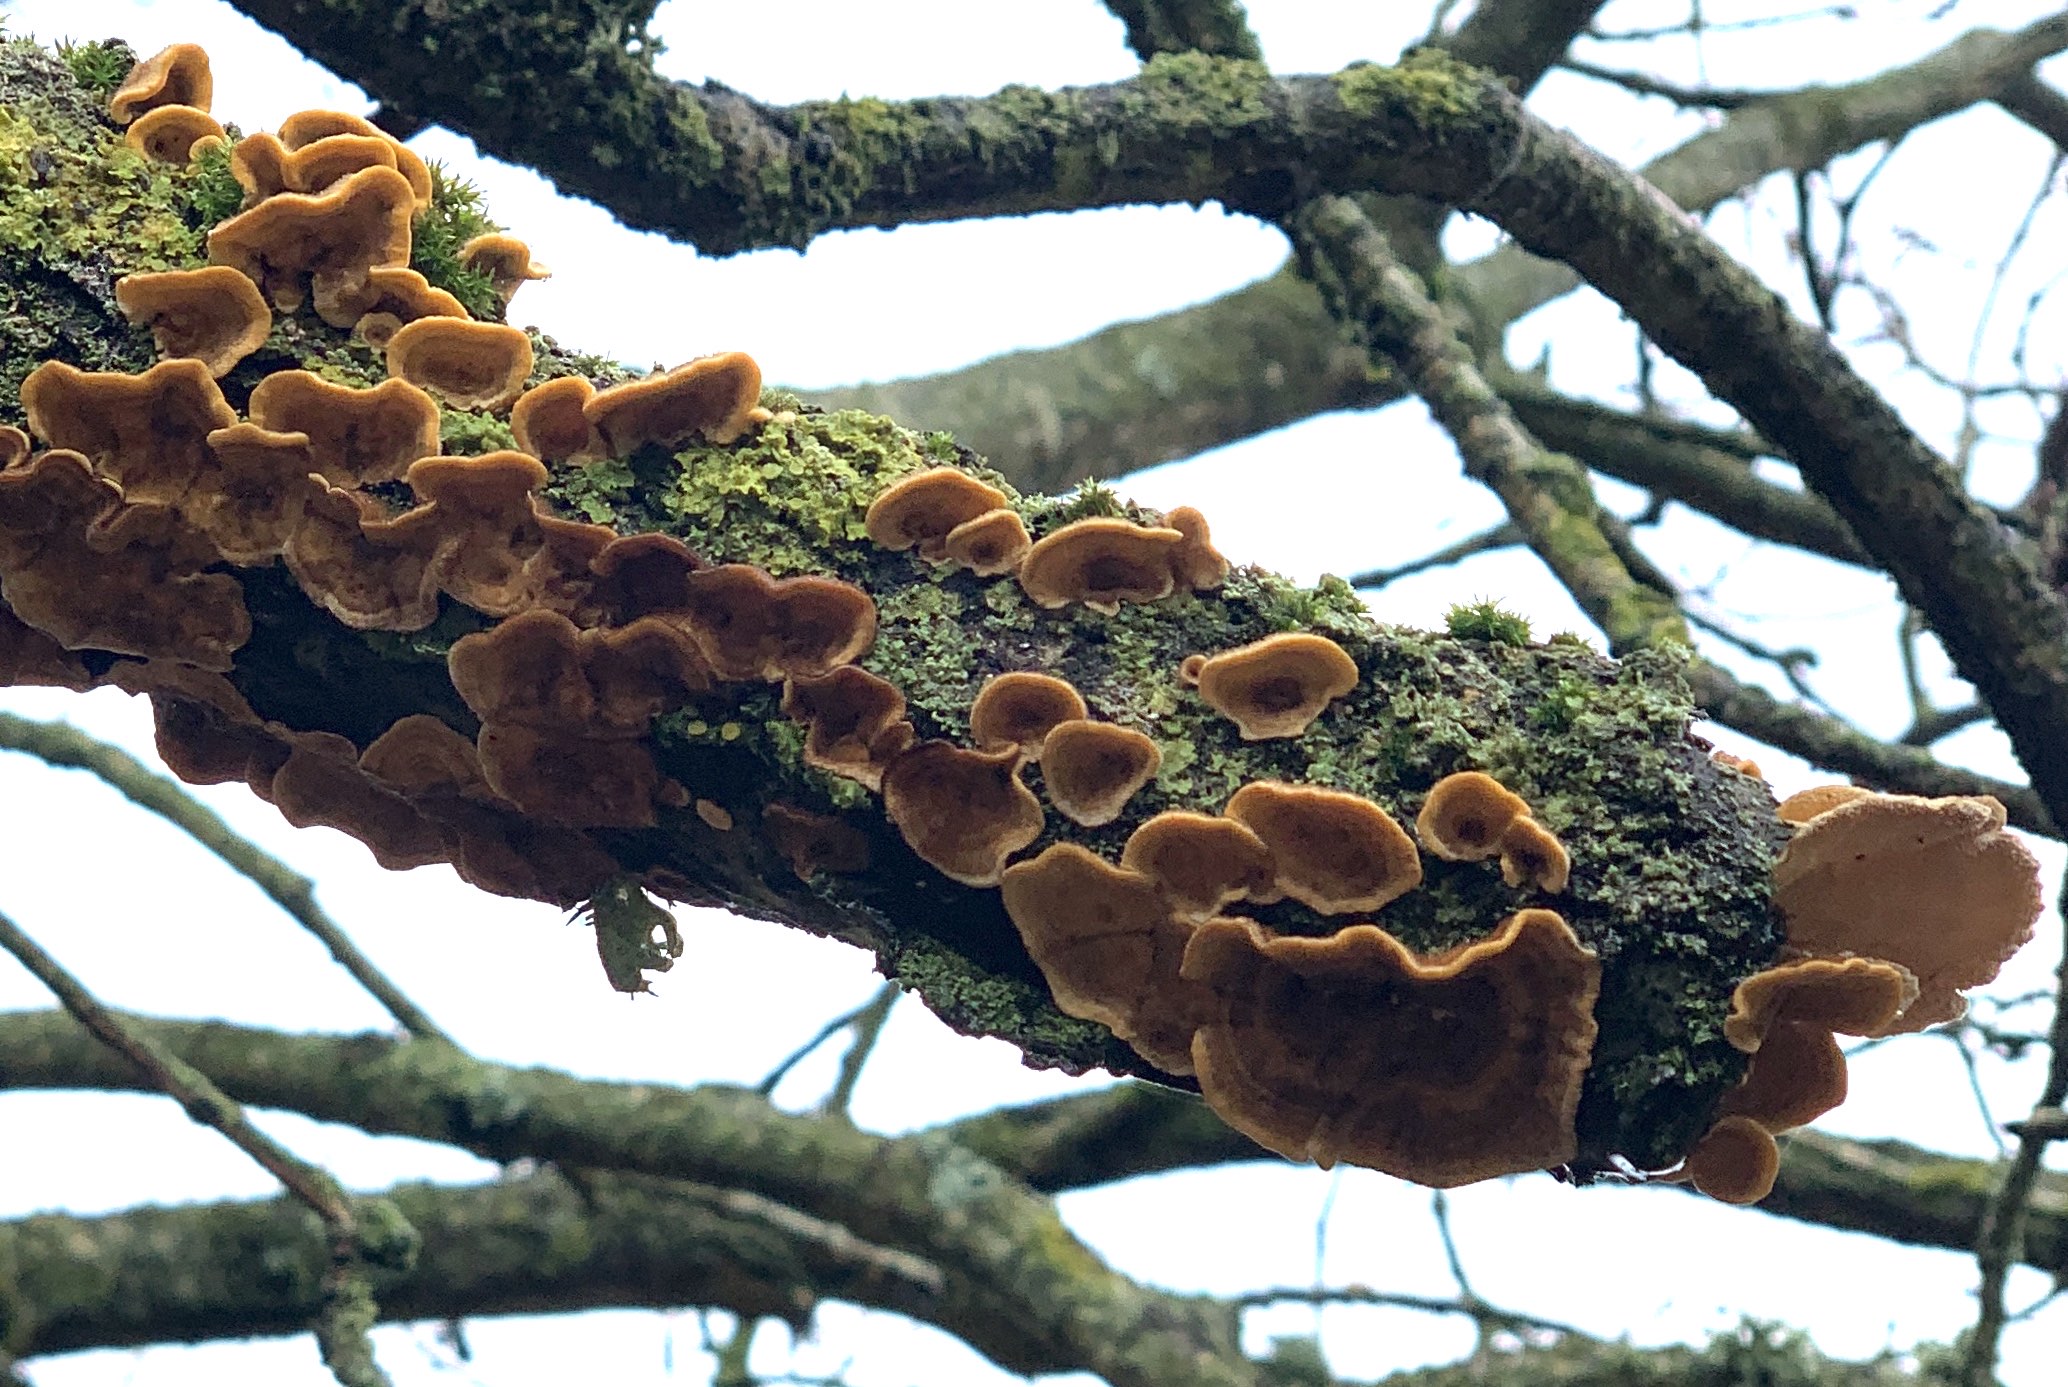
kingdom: Fungi
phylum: Basidiomycota
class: Agaricomycetes
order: Russulales
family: Stereaceae
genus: Stereum
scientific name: Stereum hirsutum
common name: håret lædersvamp
